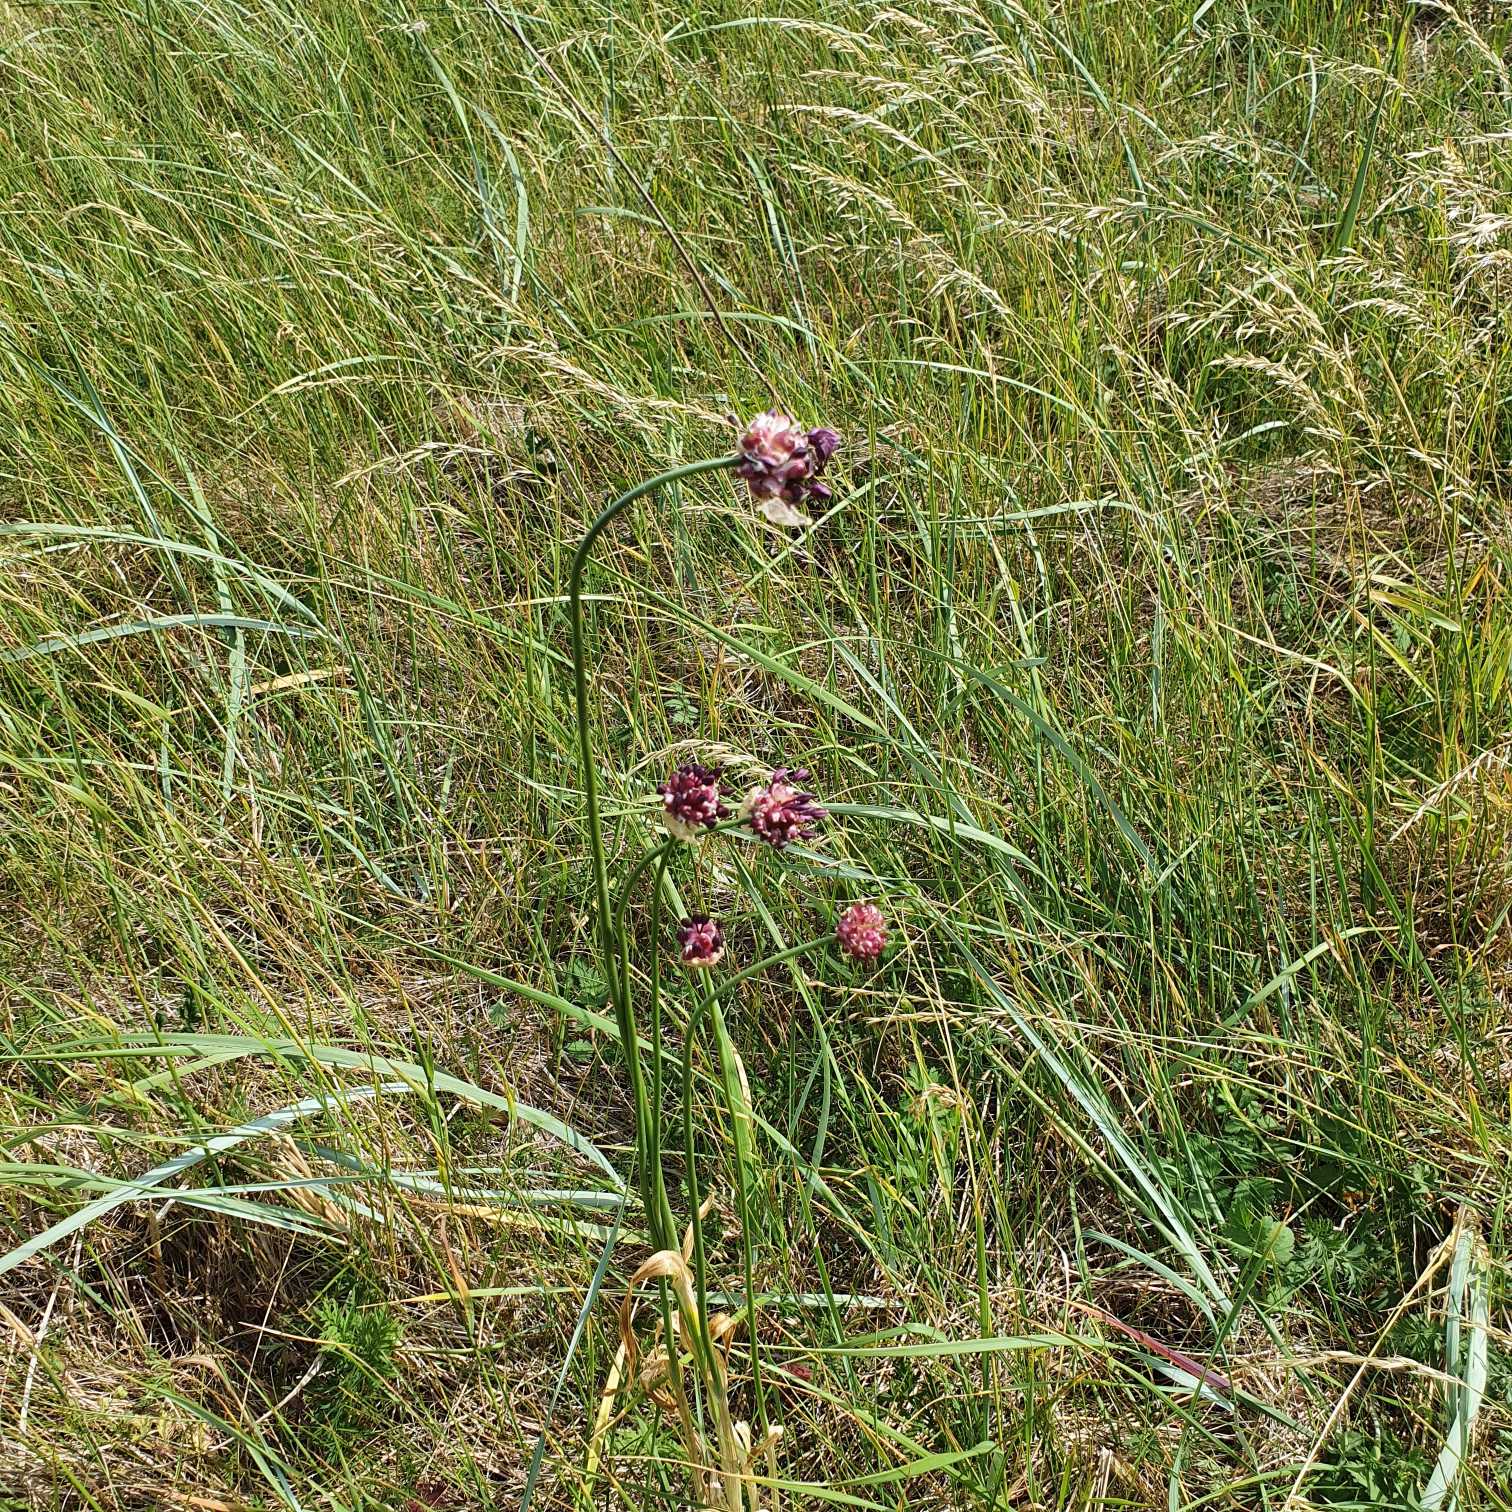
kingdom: Plantae
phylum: Tracheophyta
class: Liliopsida
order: Asparagales
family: Amaryllidaceae
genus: Allium
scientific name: Allium scorodoprasum
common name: Skov-løg
